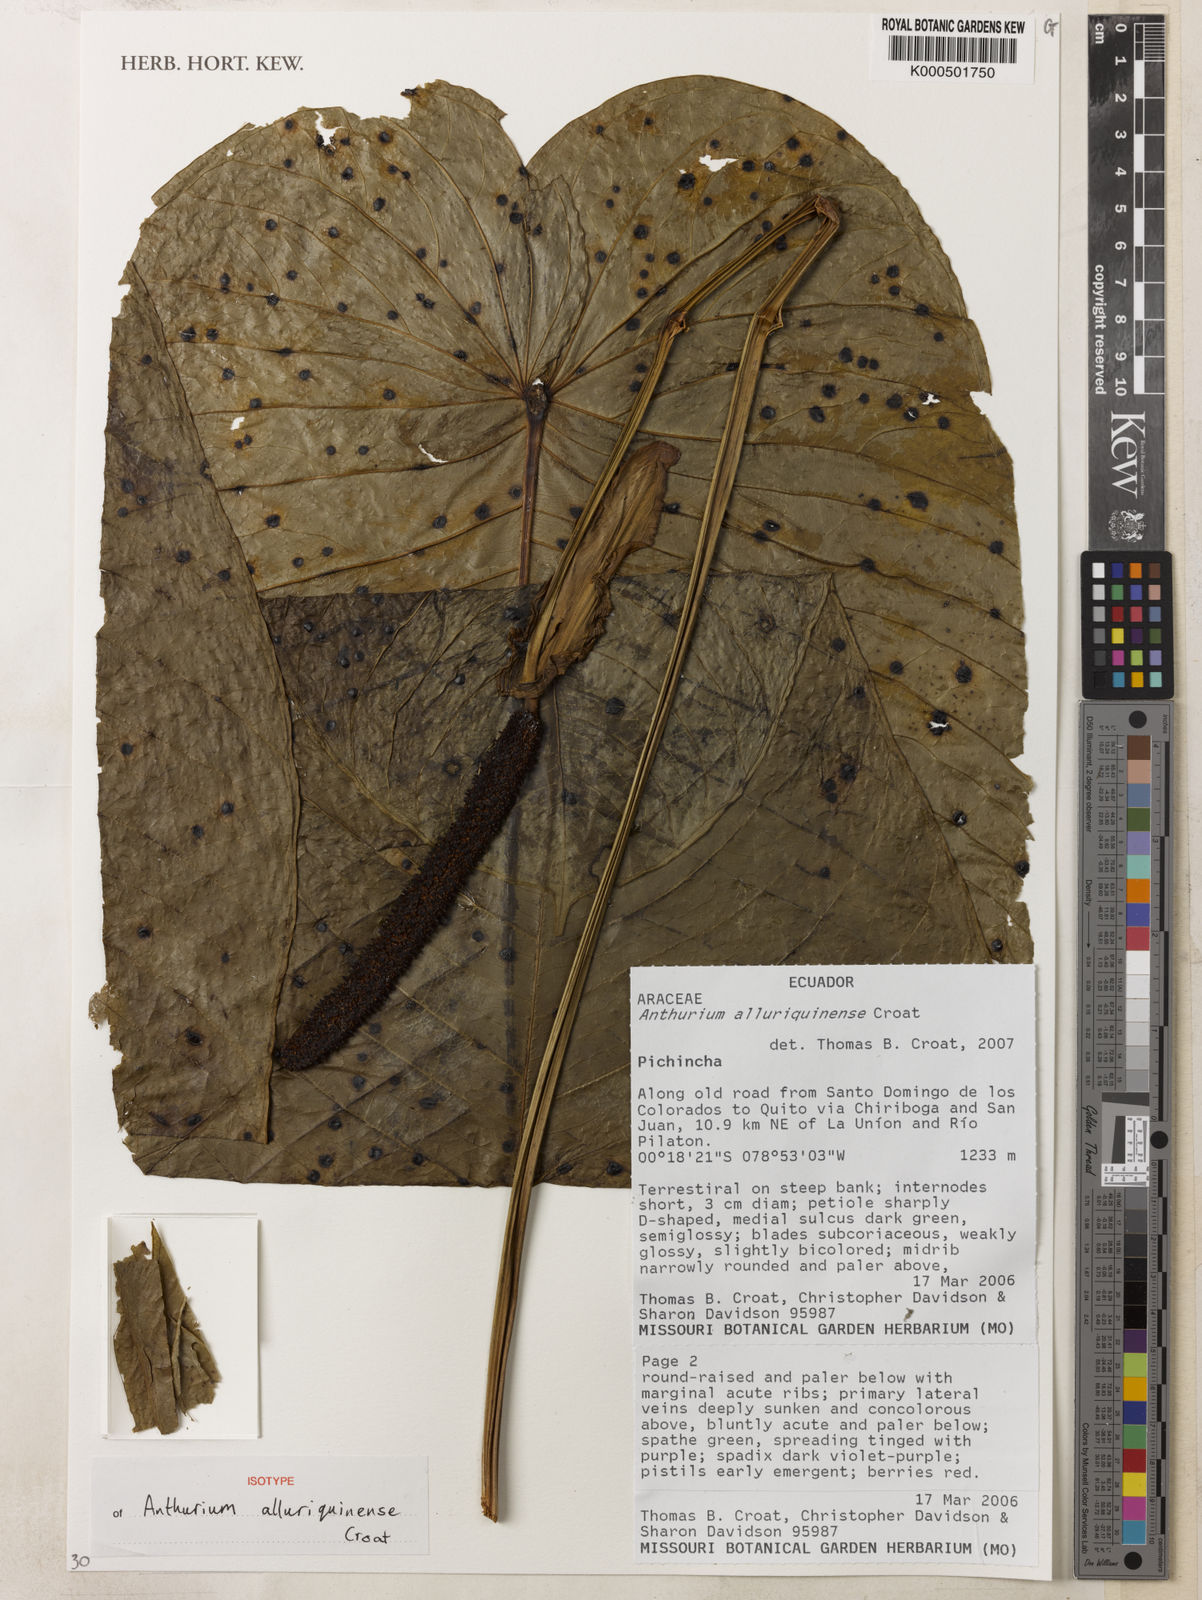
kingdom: Plantae
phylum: Tracheophyta
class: Liliopsida
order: Alismatales
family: Araceae
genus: Anthurium
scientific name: Anthurium alluriquinense
